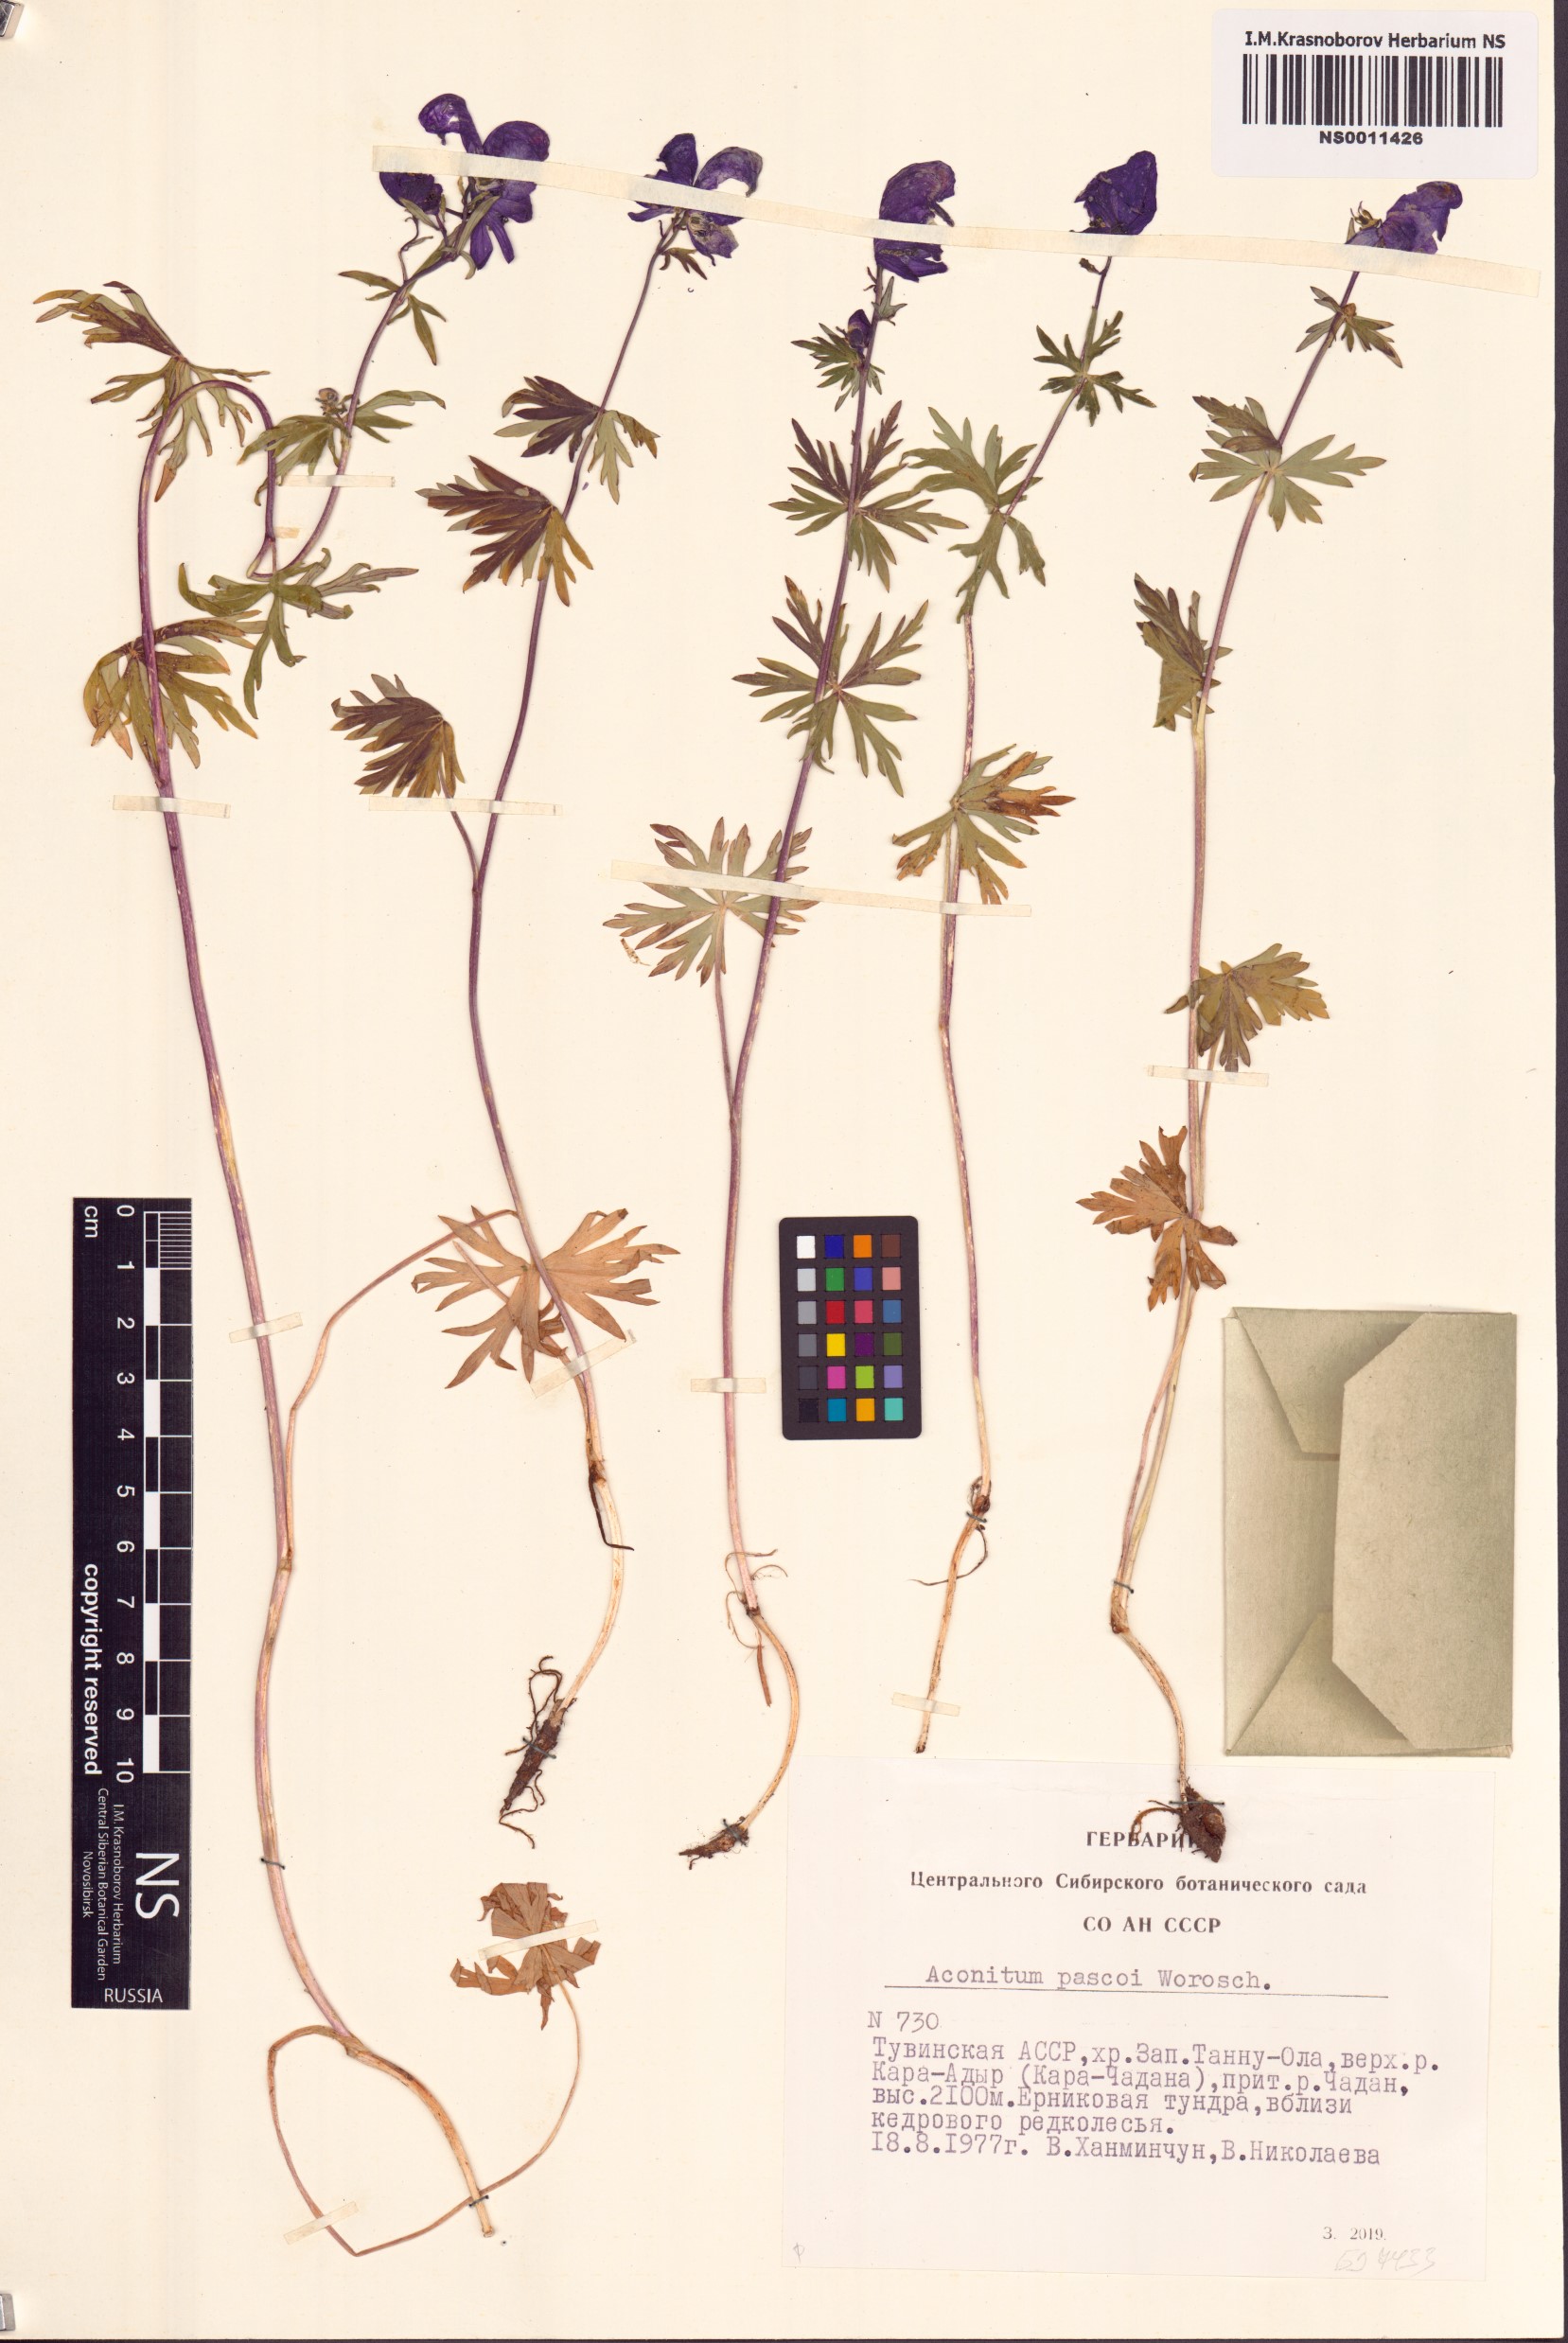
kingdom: Plantae
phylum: Tracheophyta
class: Magnoliopsida
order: Ranunculales
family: Ranunculaceae
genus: Aconitum
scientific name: Aconitum pascoi
